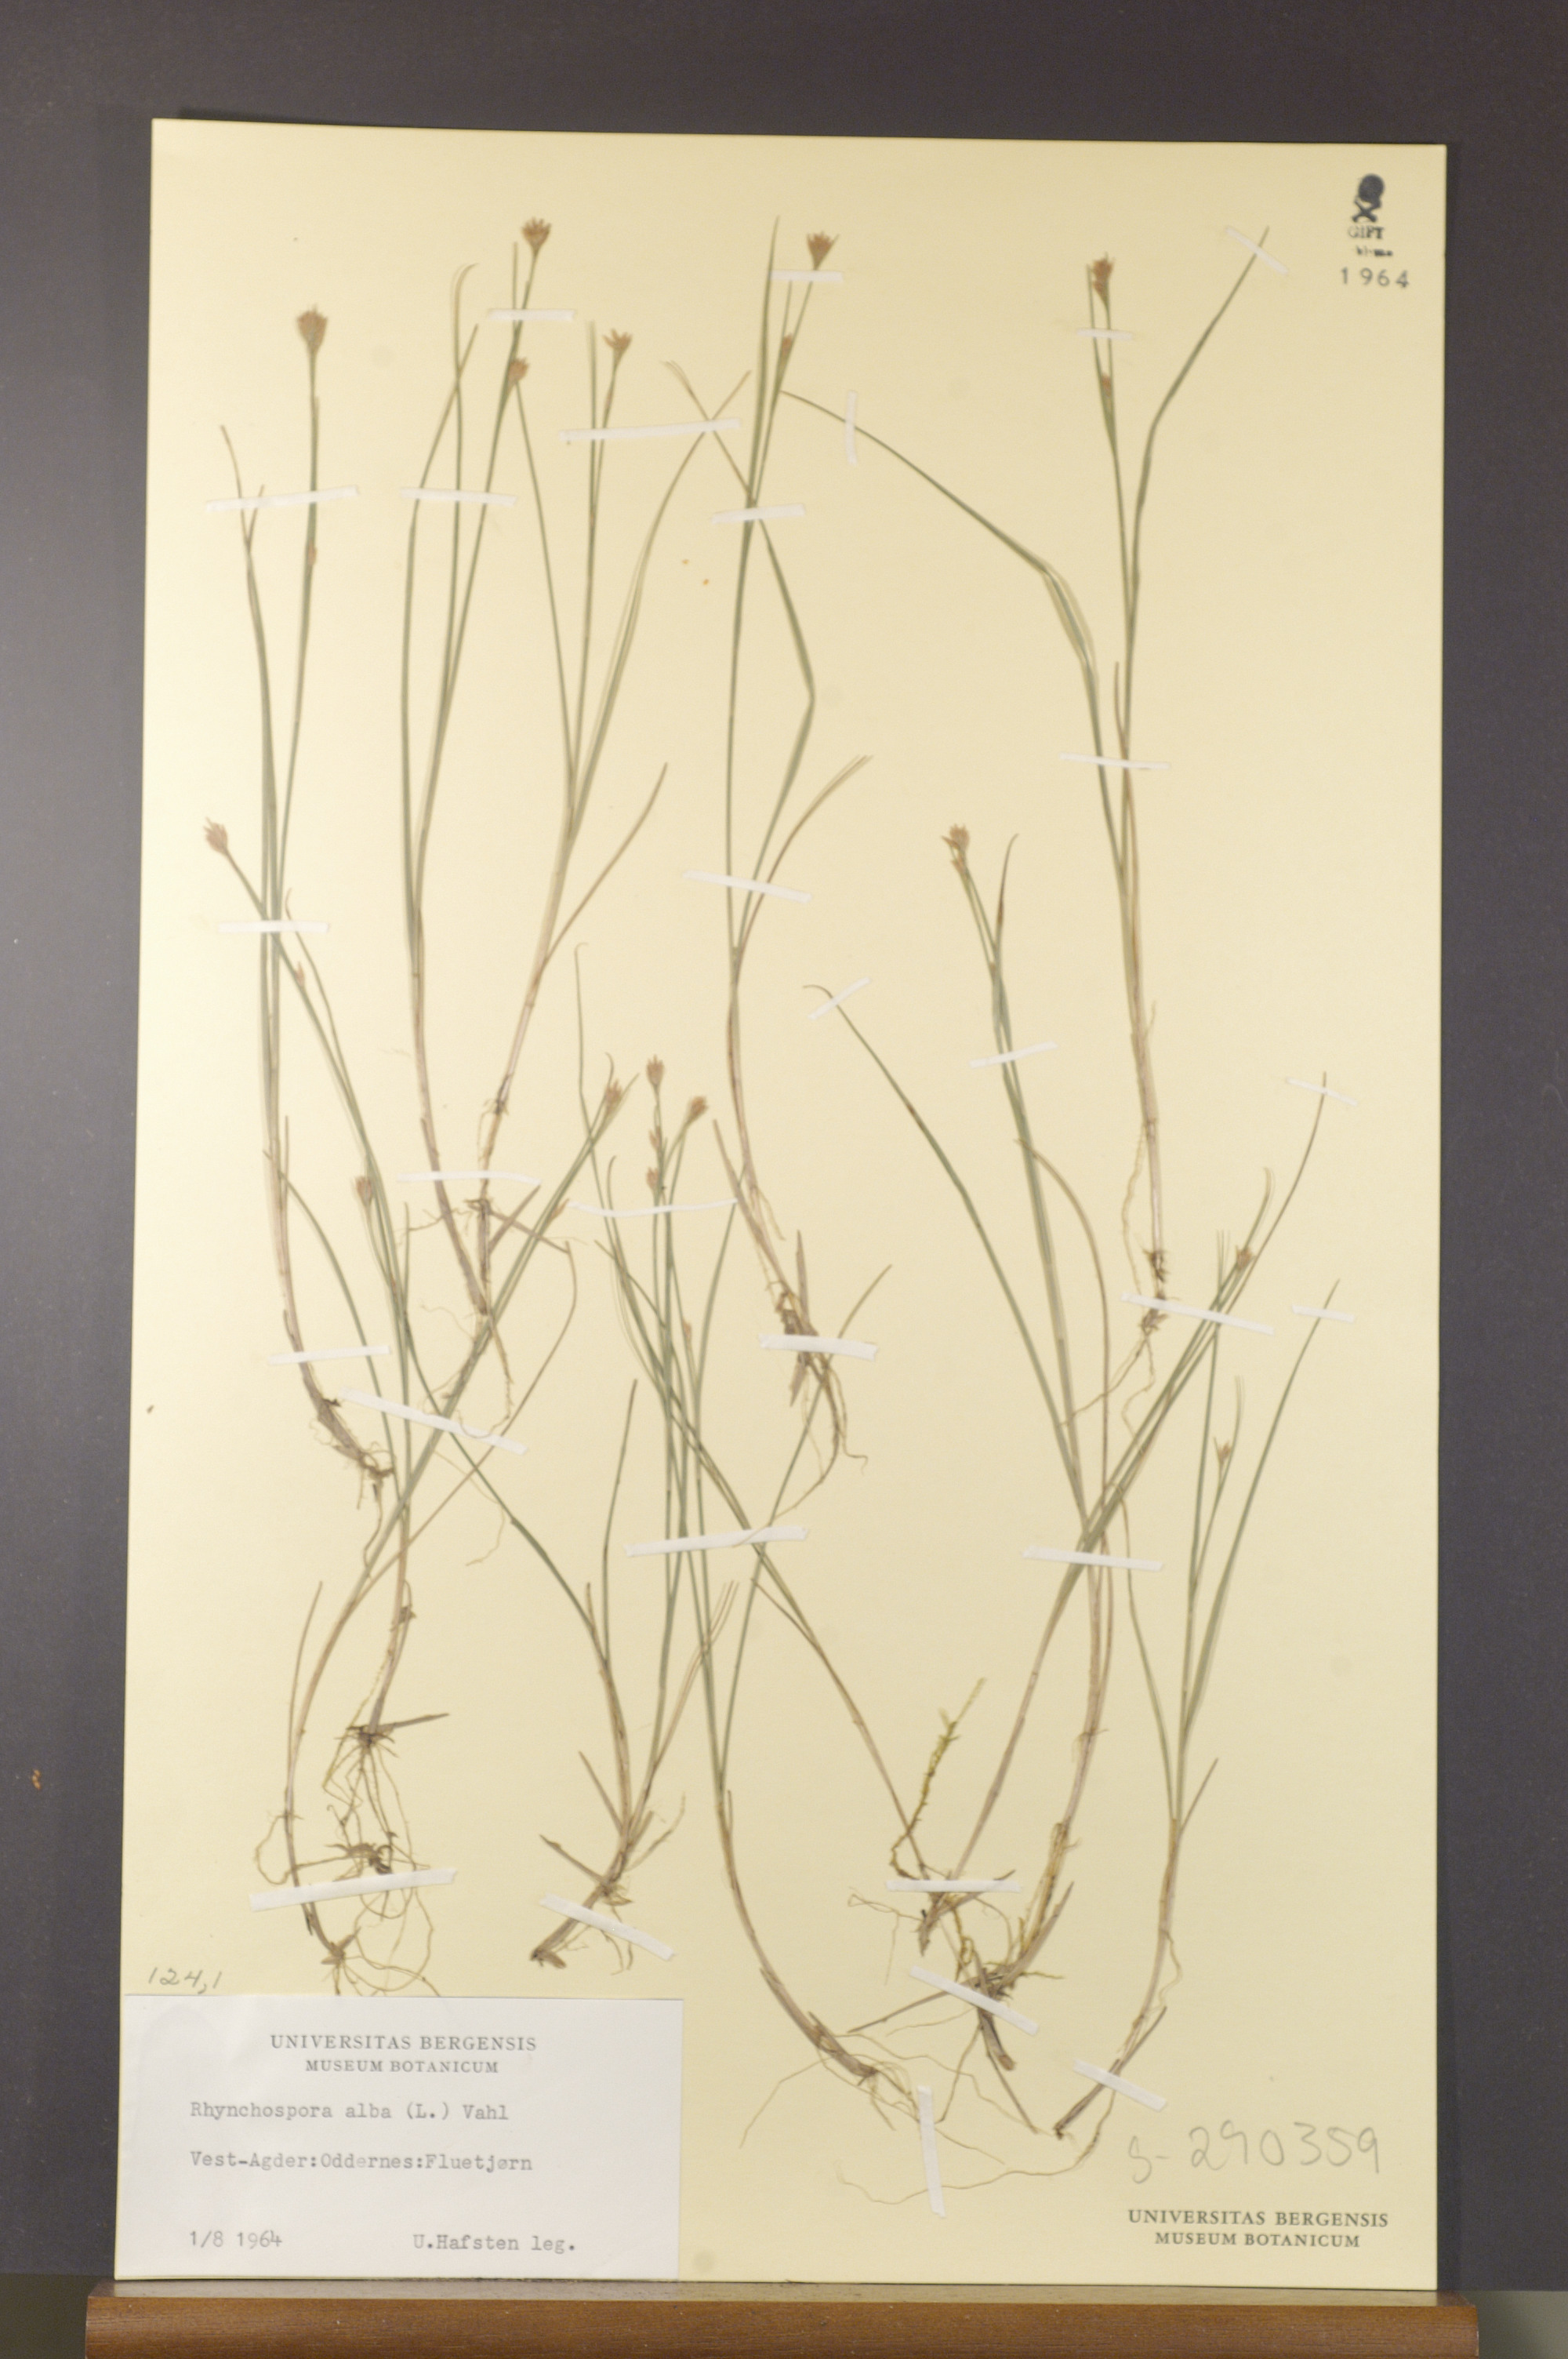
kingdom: Plantae
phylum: Tracheophyta
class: Liliopsida
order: Poales
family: Cyperaceae
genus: Rhynchospora
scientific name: Rhynchospora alba
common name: White beak-sedge
